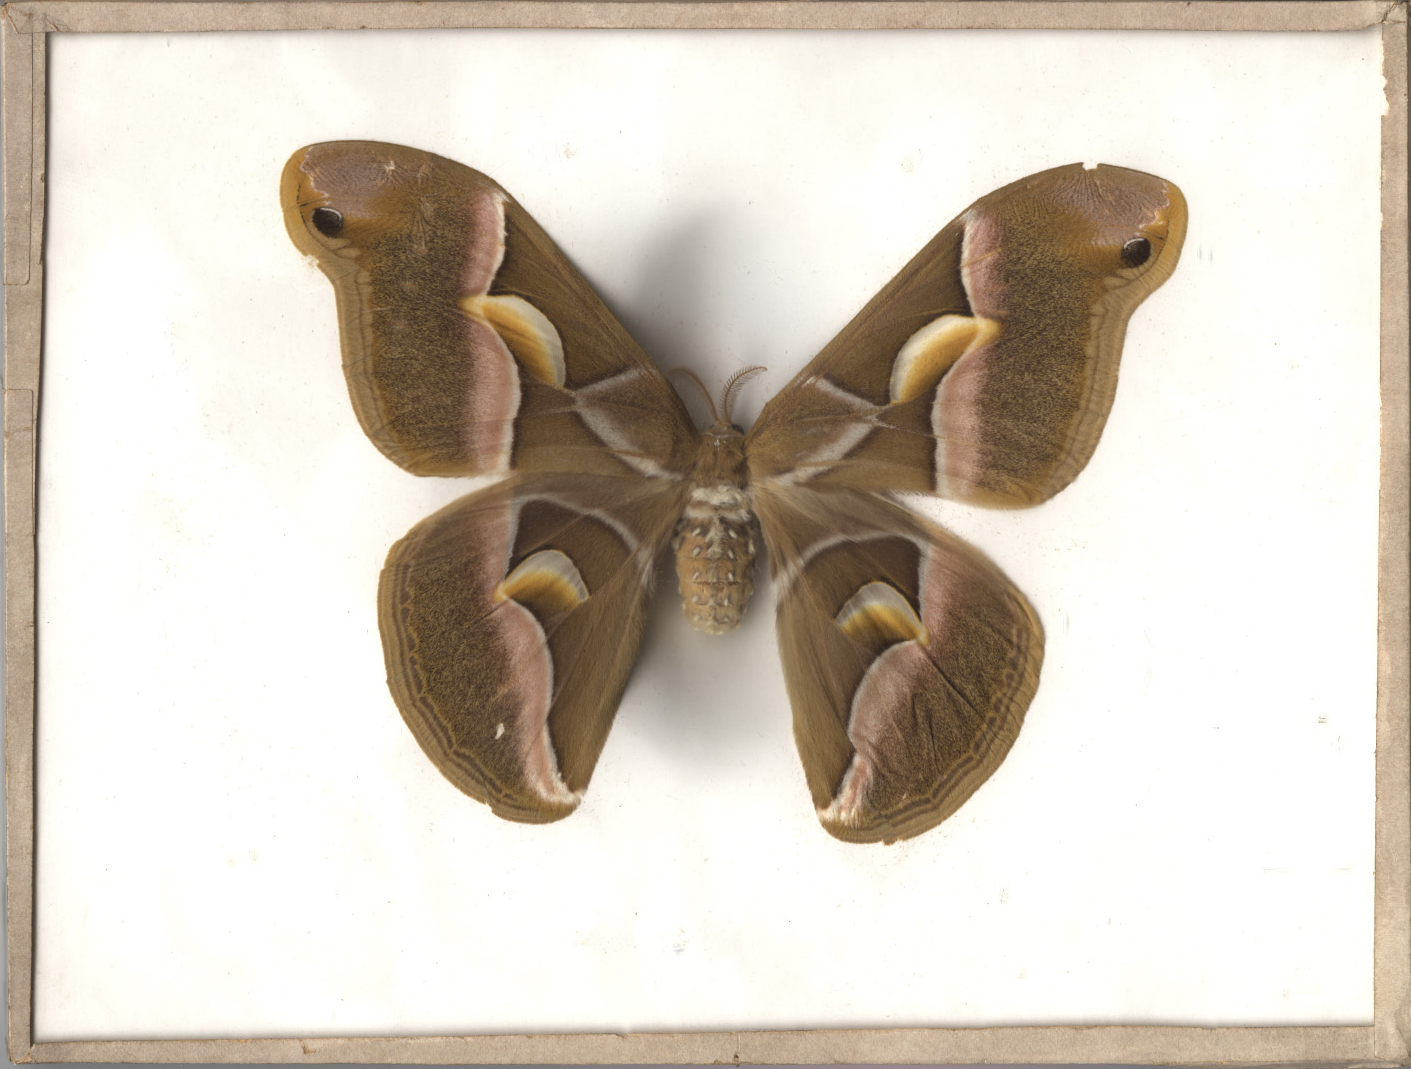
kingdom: Animalia
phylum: Arthropoda
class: Insecta
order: Lepidoptera
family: Saturniidae
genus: Samia
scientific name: Samia cynthia
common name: Ailanthus Silkmoth
